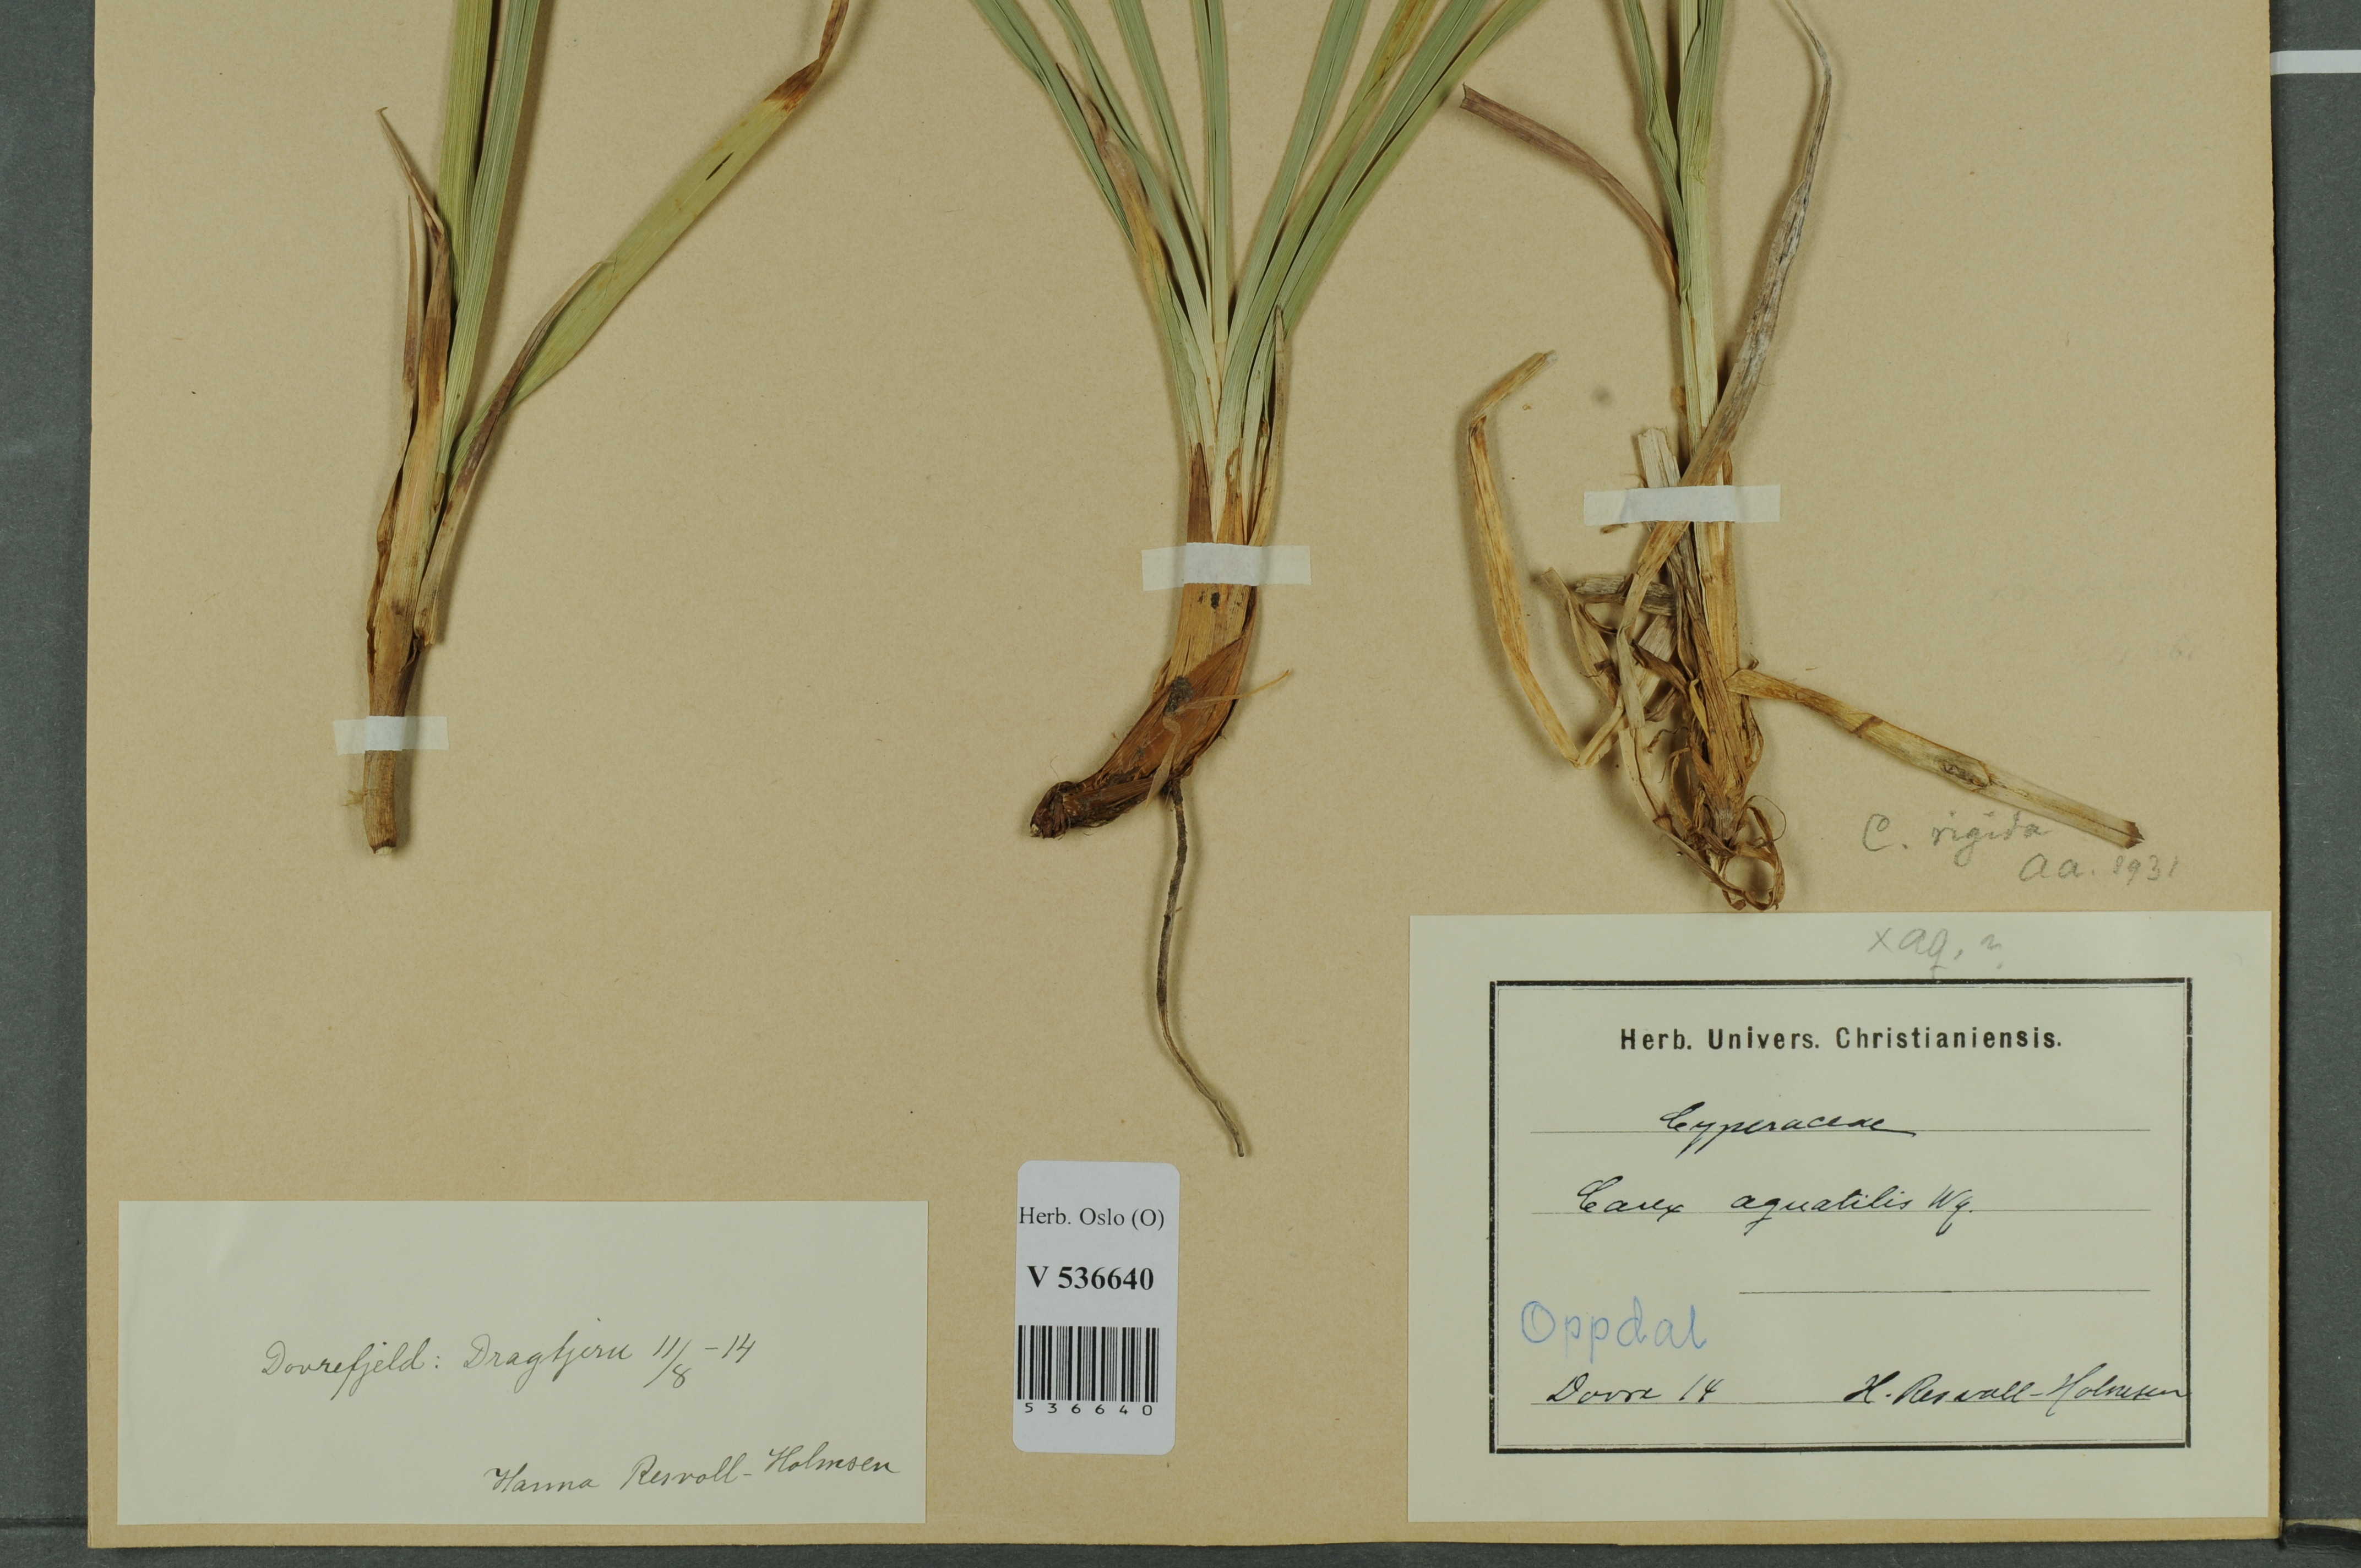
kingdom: Plantae
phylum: Tracheophyta
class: Liliopsida
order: Poales
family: Cyperaceae
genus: Carex
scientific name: Carex dacica
